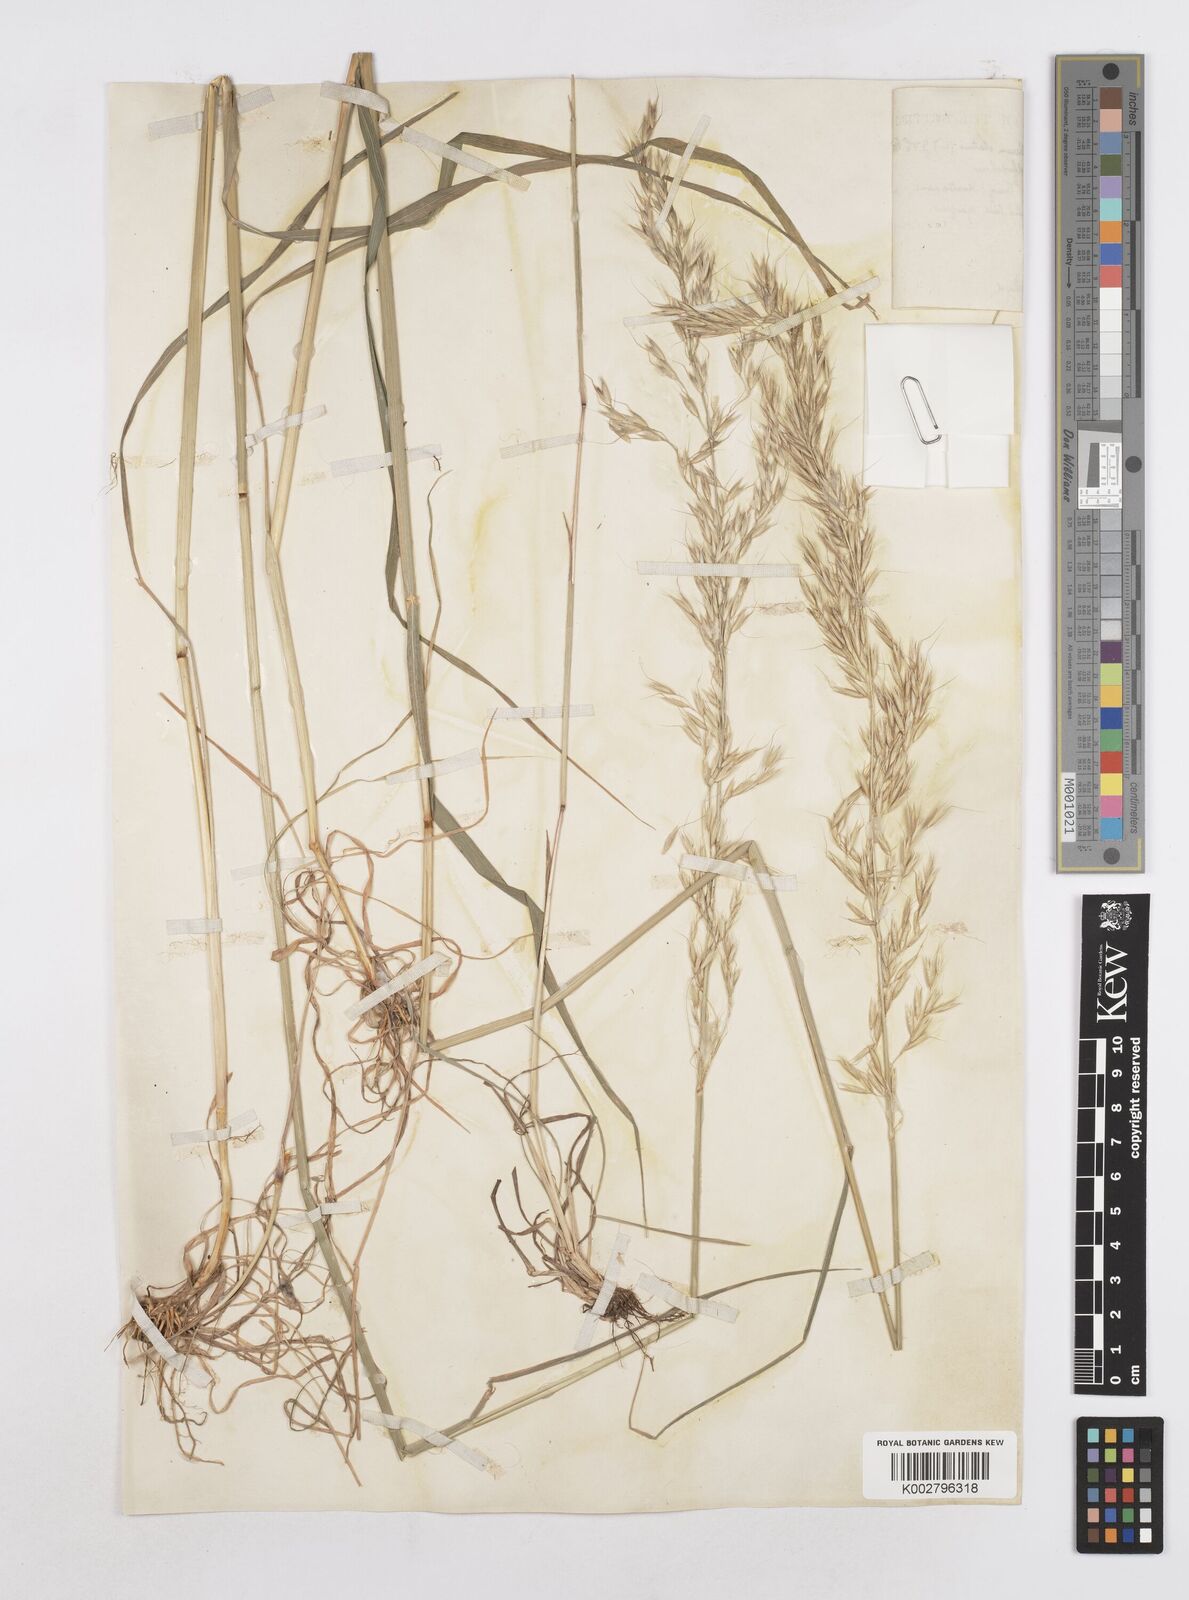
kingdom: Plantae
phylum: Tracheophyta
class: Liliopsida
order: Poales
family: Poaceae
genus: Arrhenatherum
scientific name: Arrhenatherum elatius
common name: Tall oatgrass
